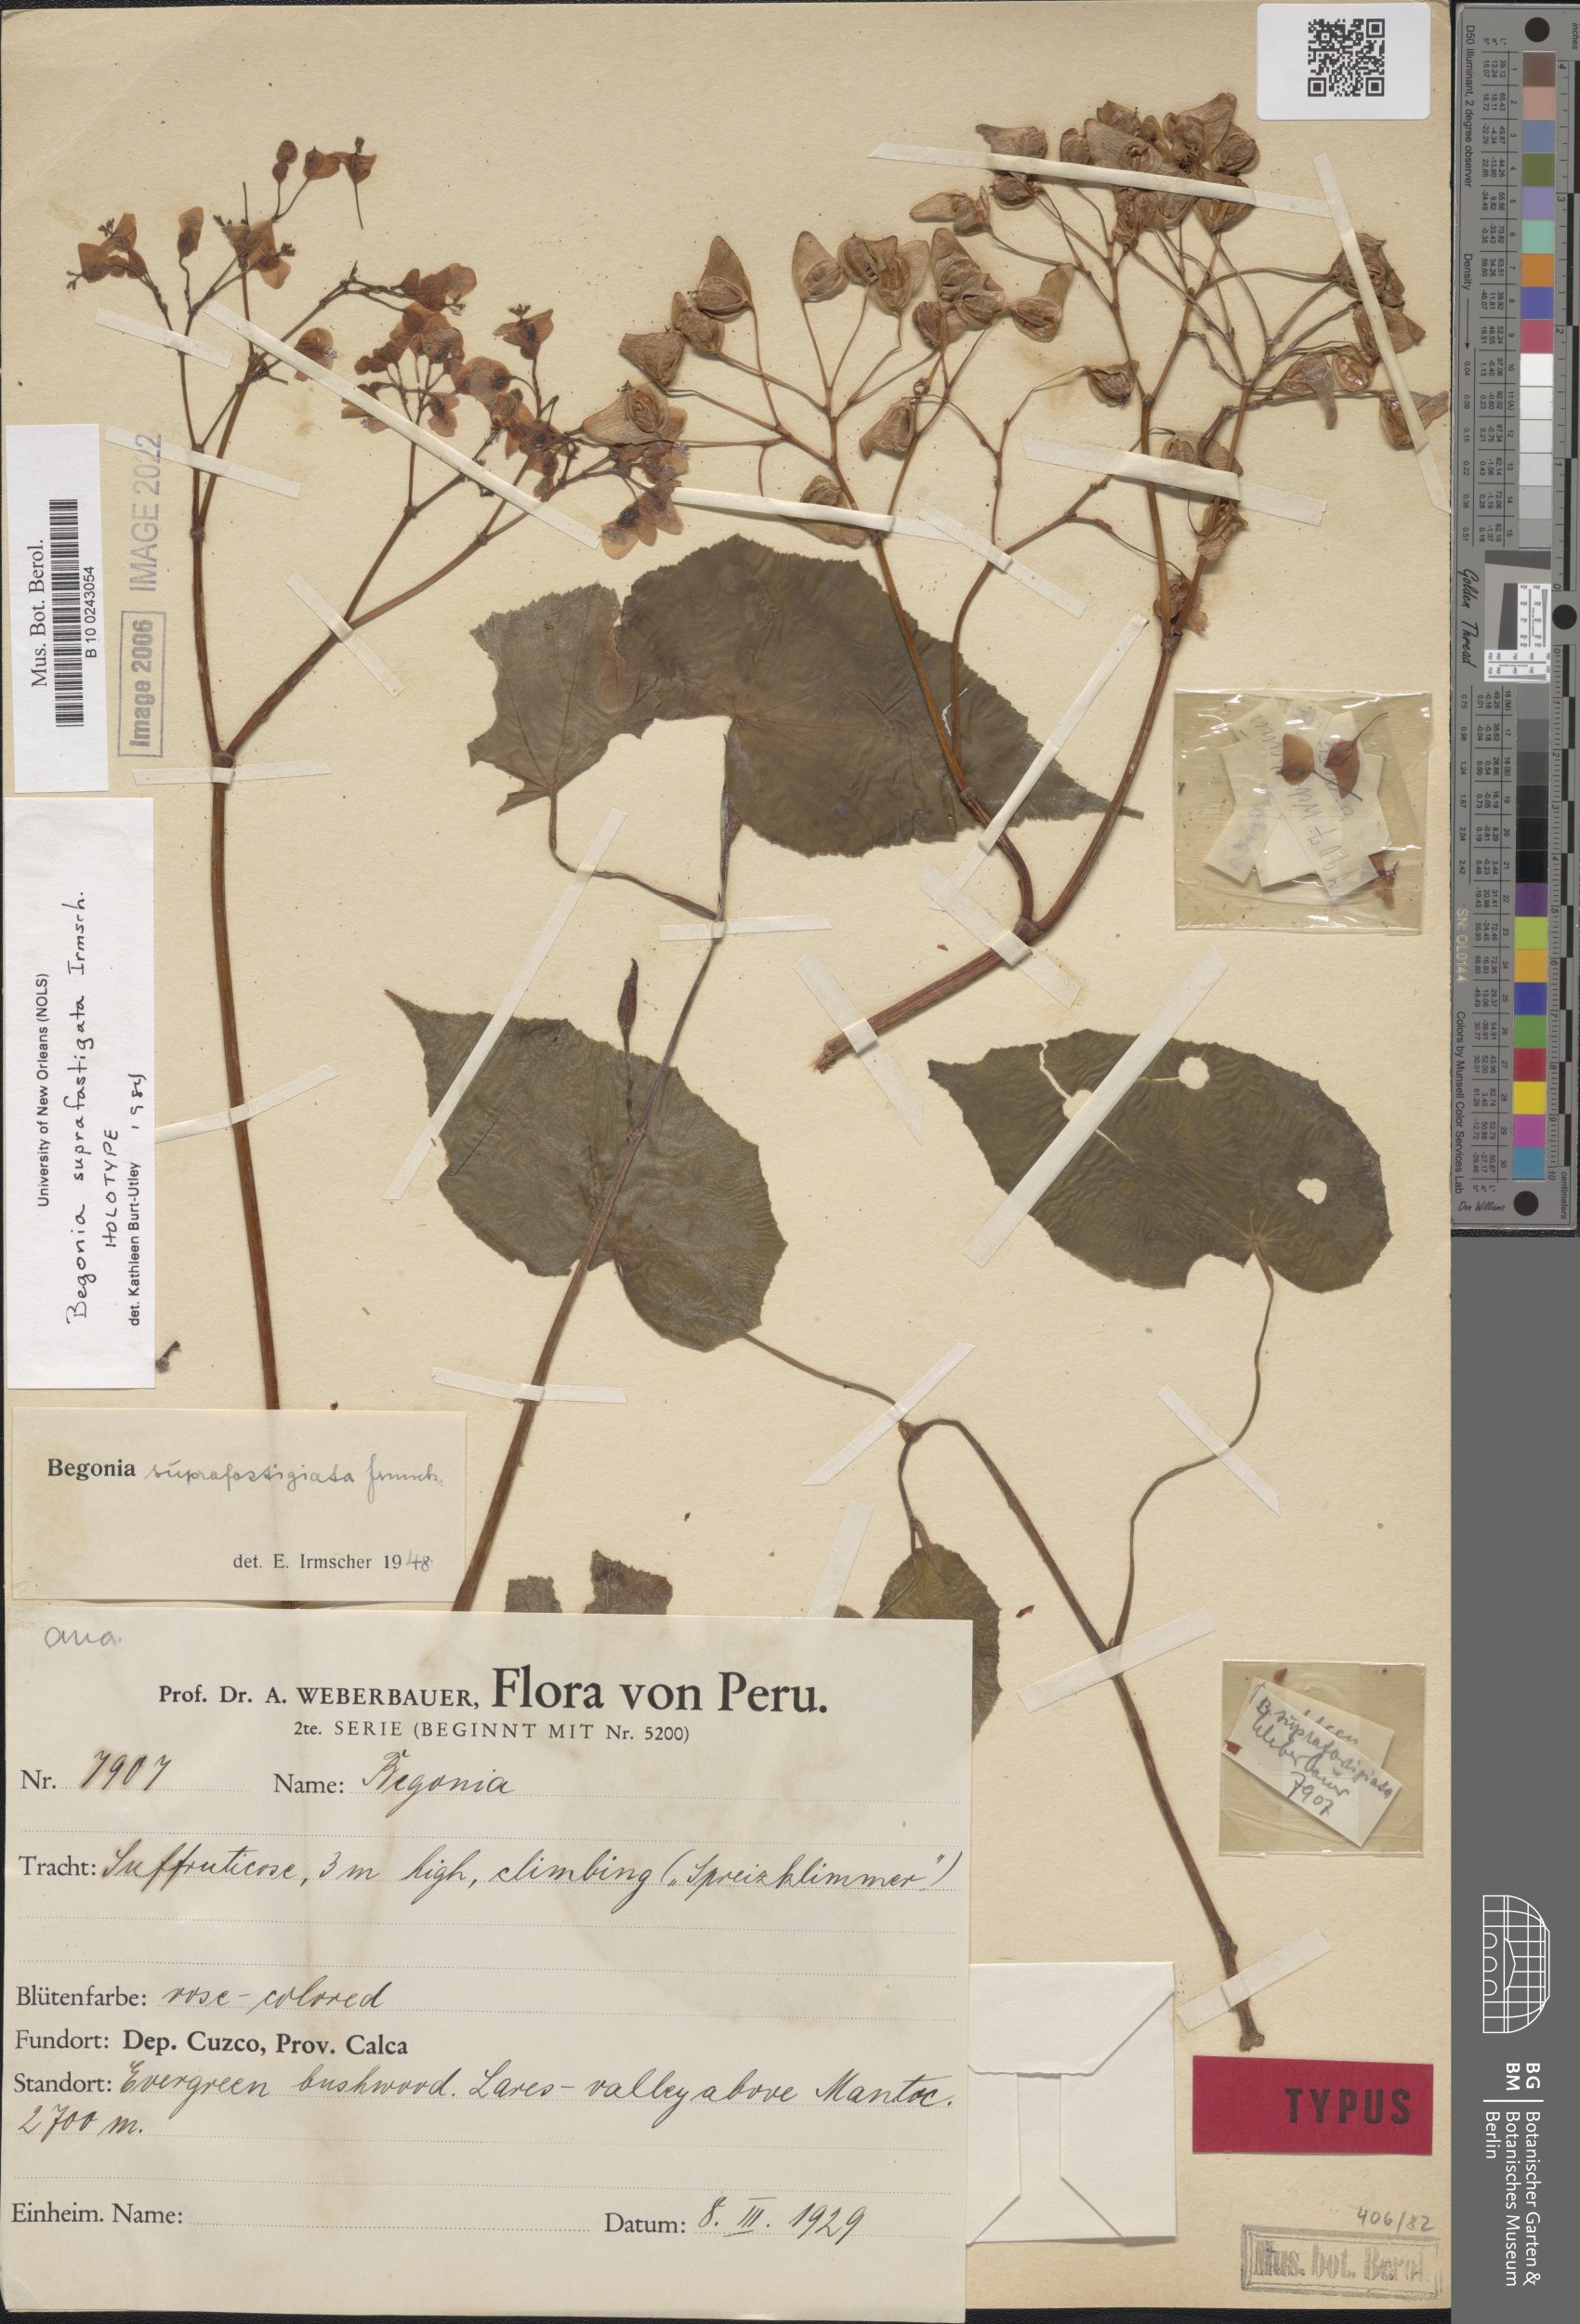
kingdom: Plantae
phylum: Tracheophyta
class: Magnoliopsida
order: Cucurbitales
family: Begoniaceae
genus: Begonia
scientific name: Begonia suprafastigiata
